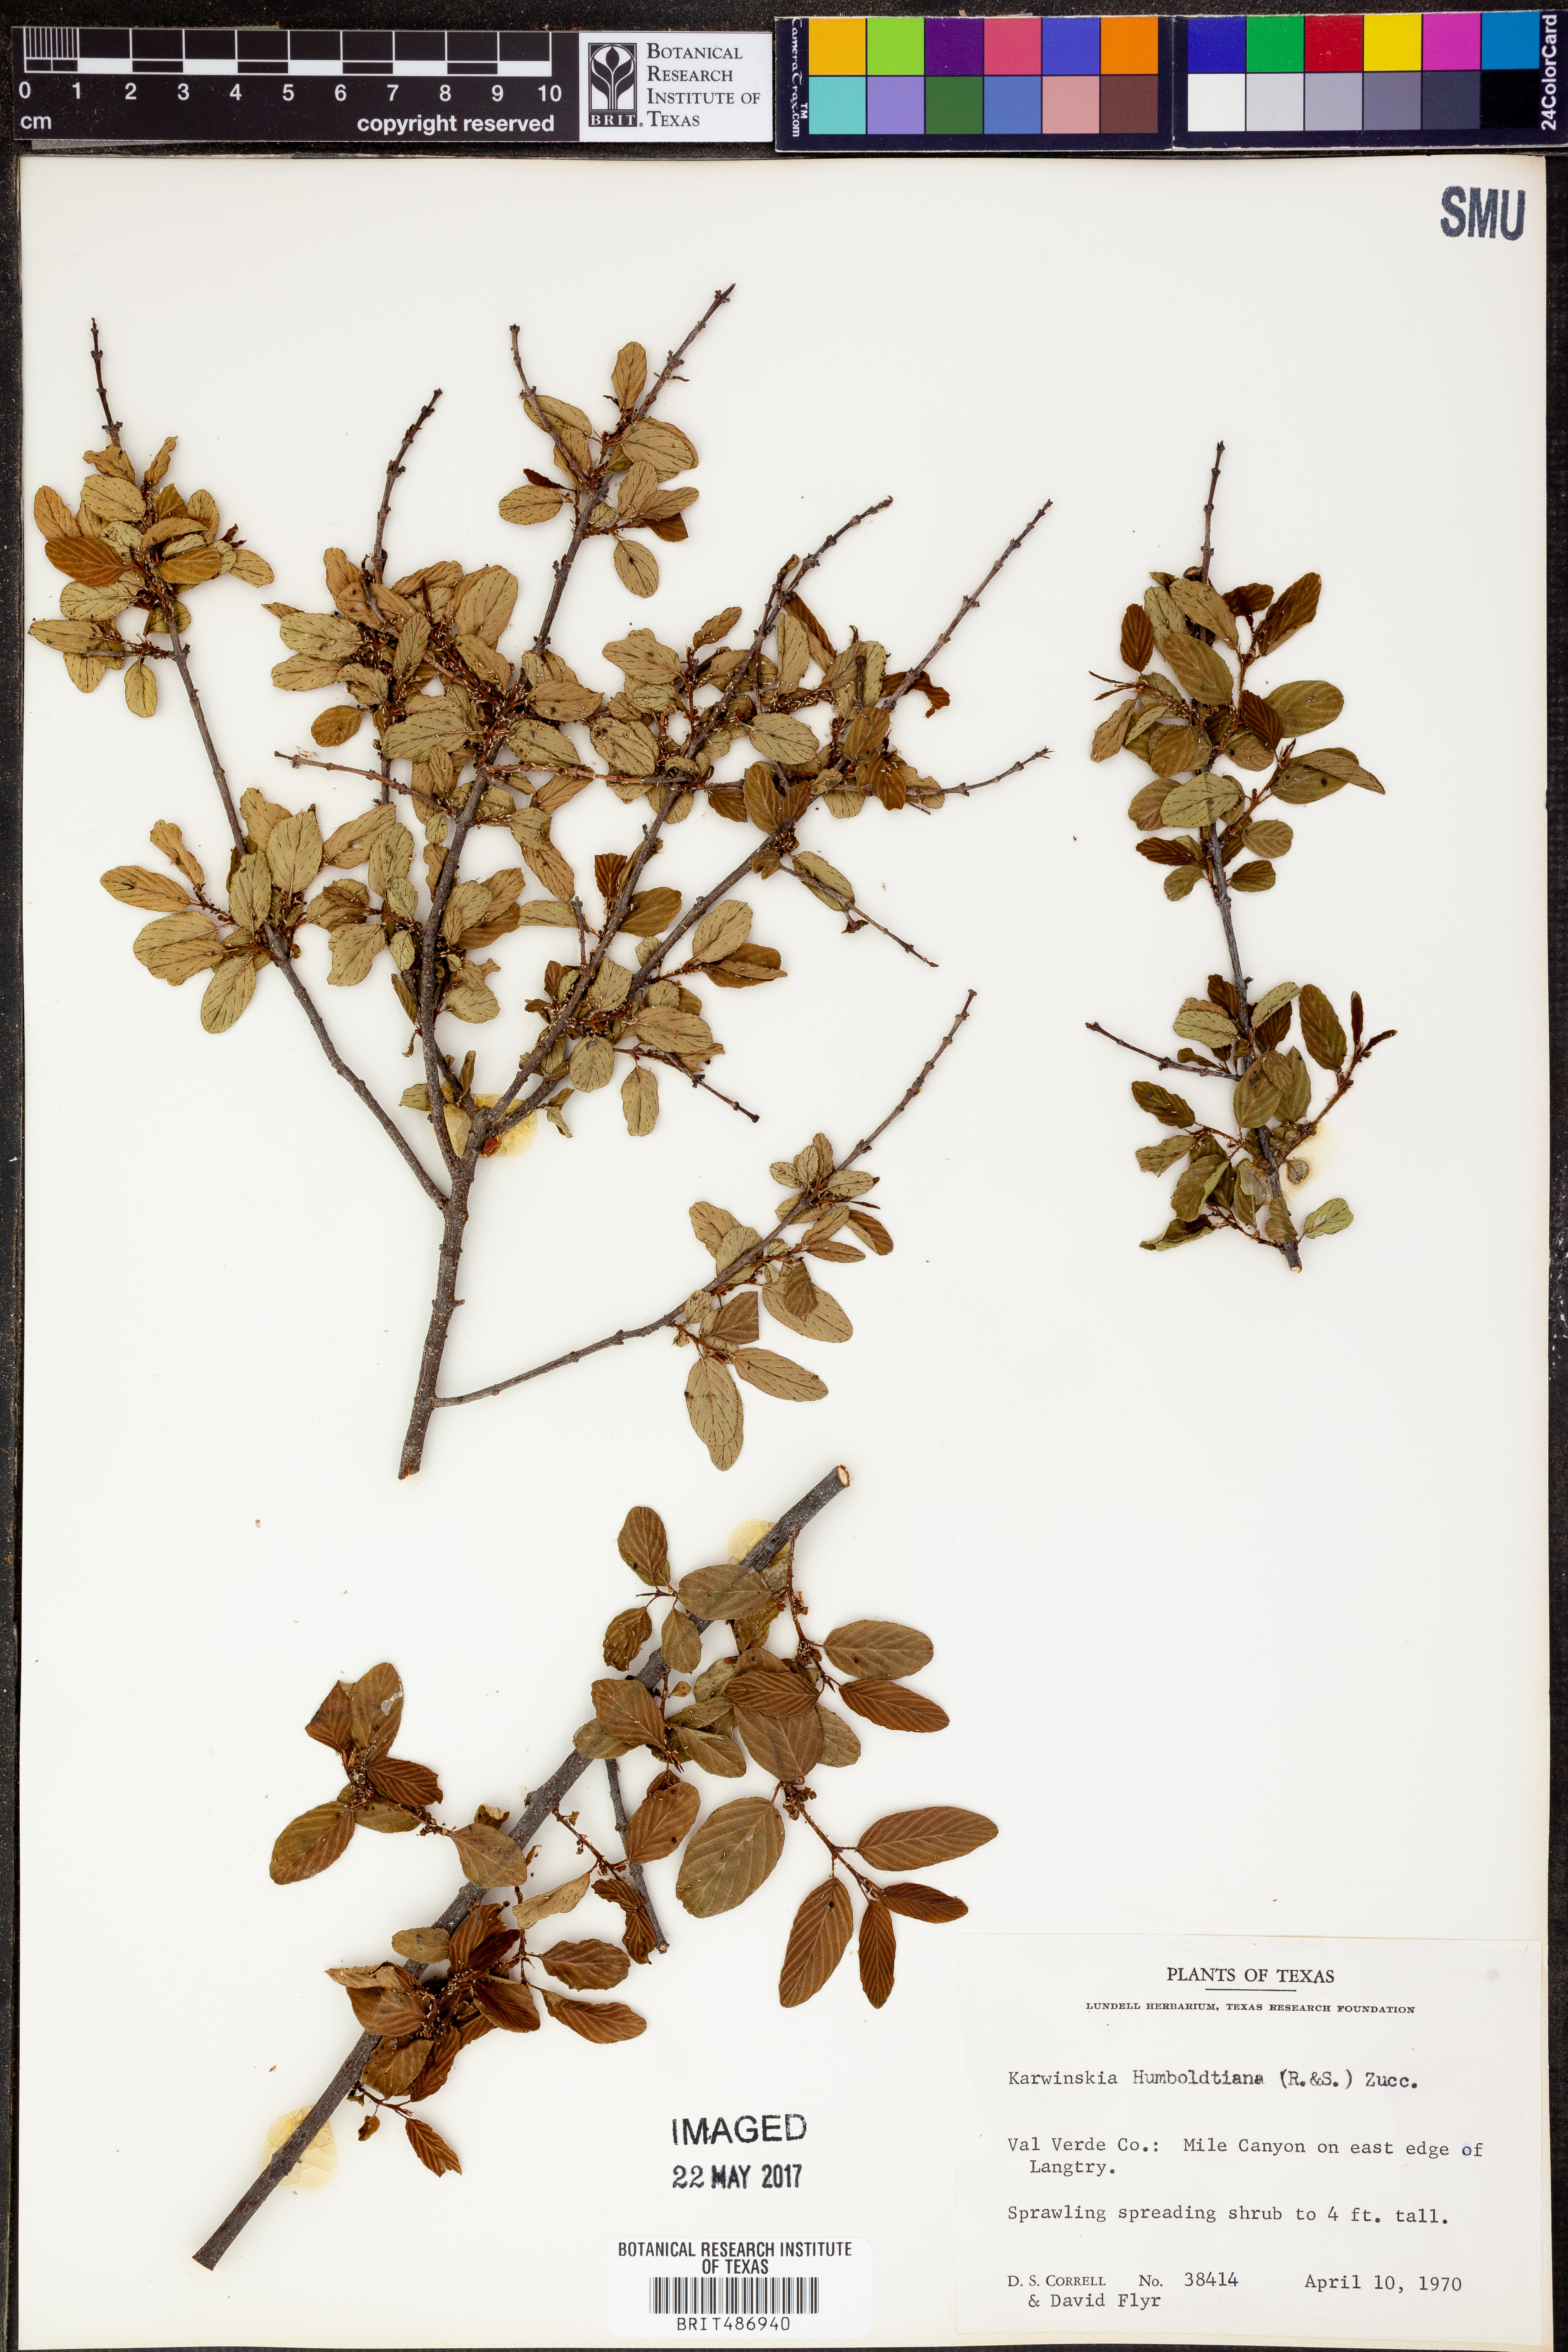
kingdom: Plantae
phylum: Tracheophyta
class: Magnoliopsida
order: Rosales
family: Rhamnaceae
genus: Karwinskia
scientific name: Karwinskia humboldtiana
